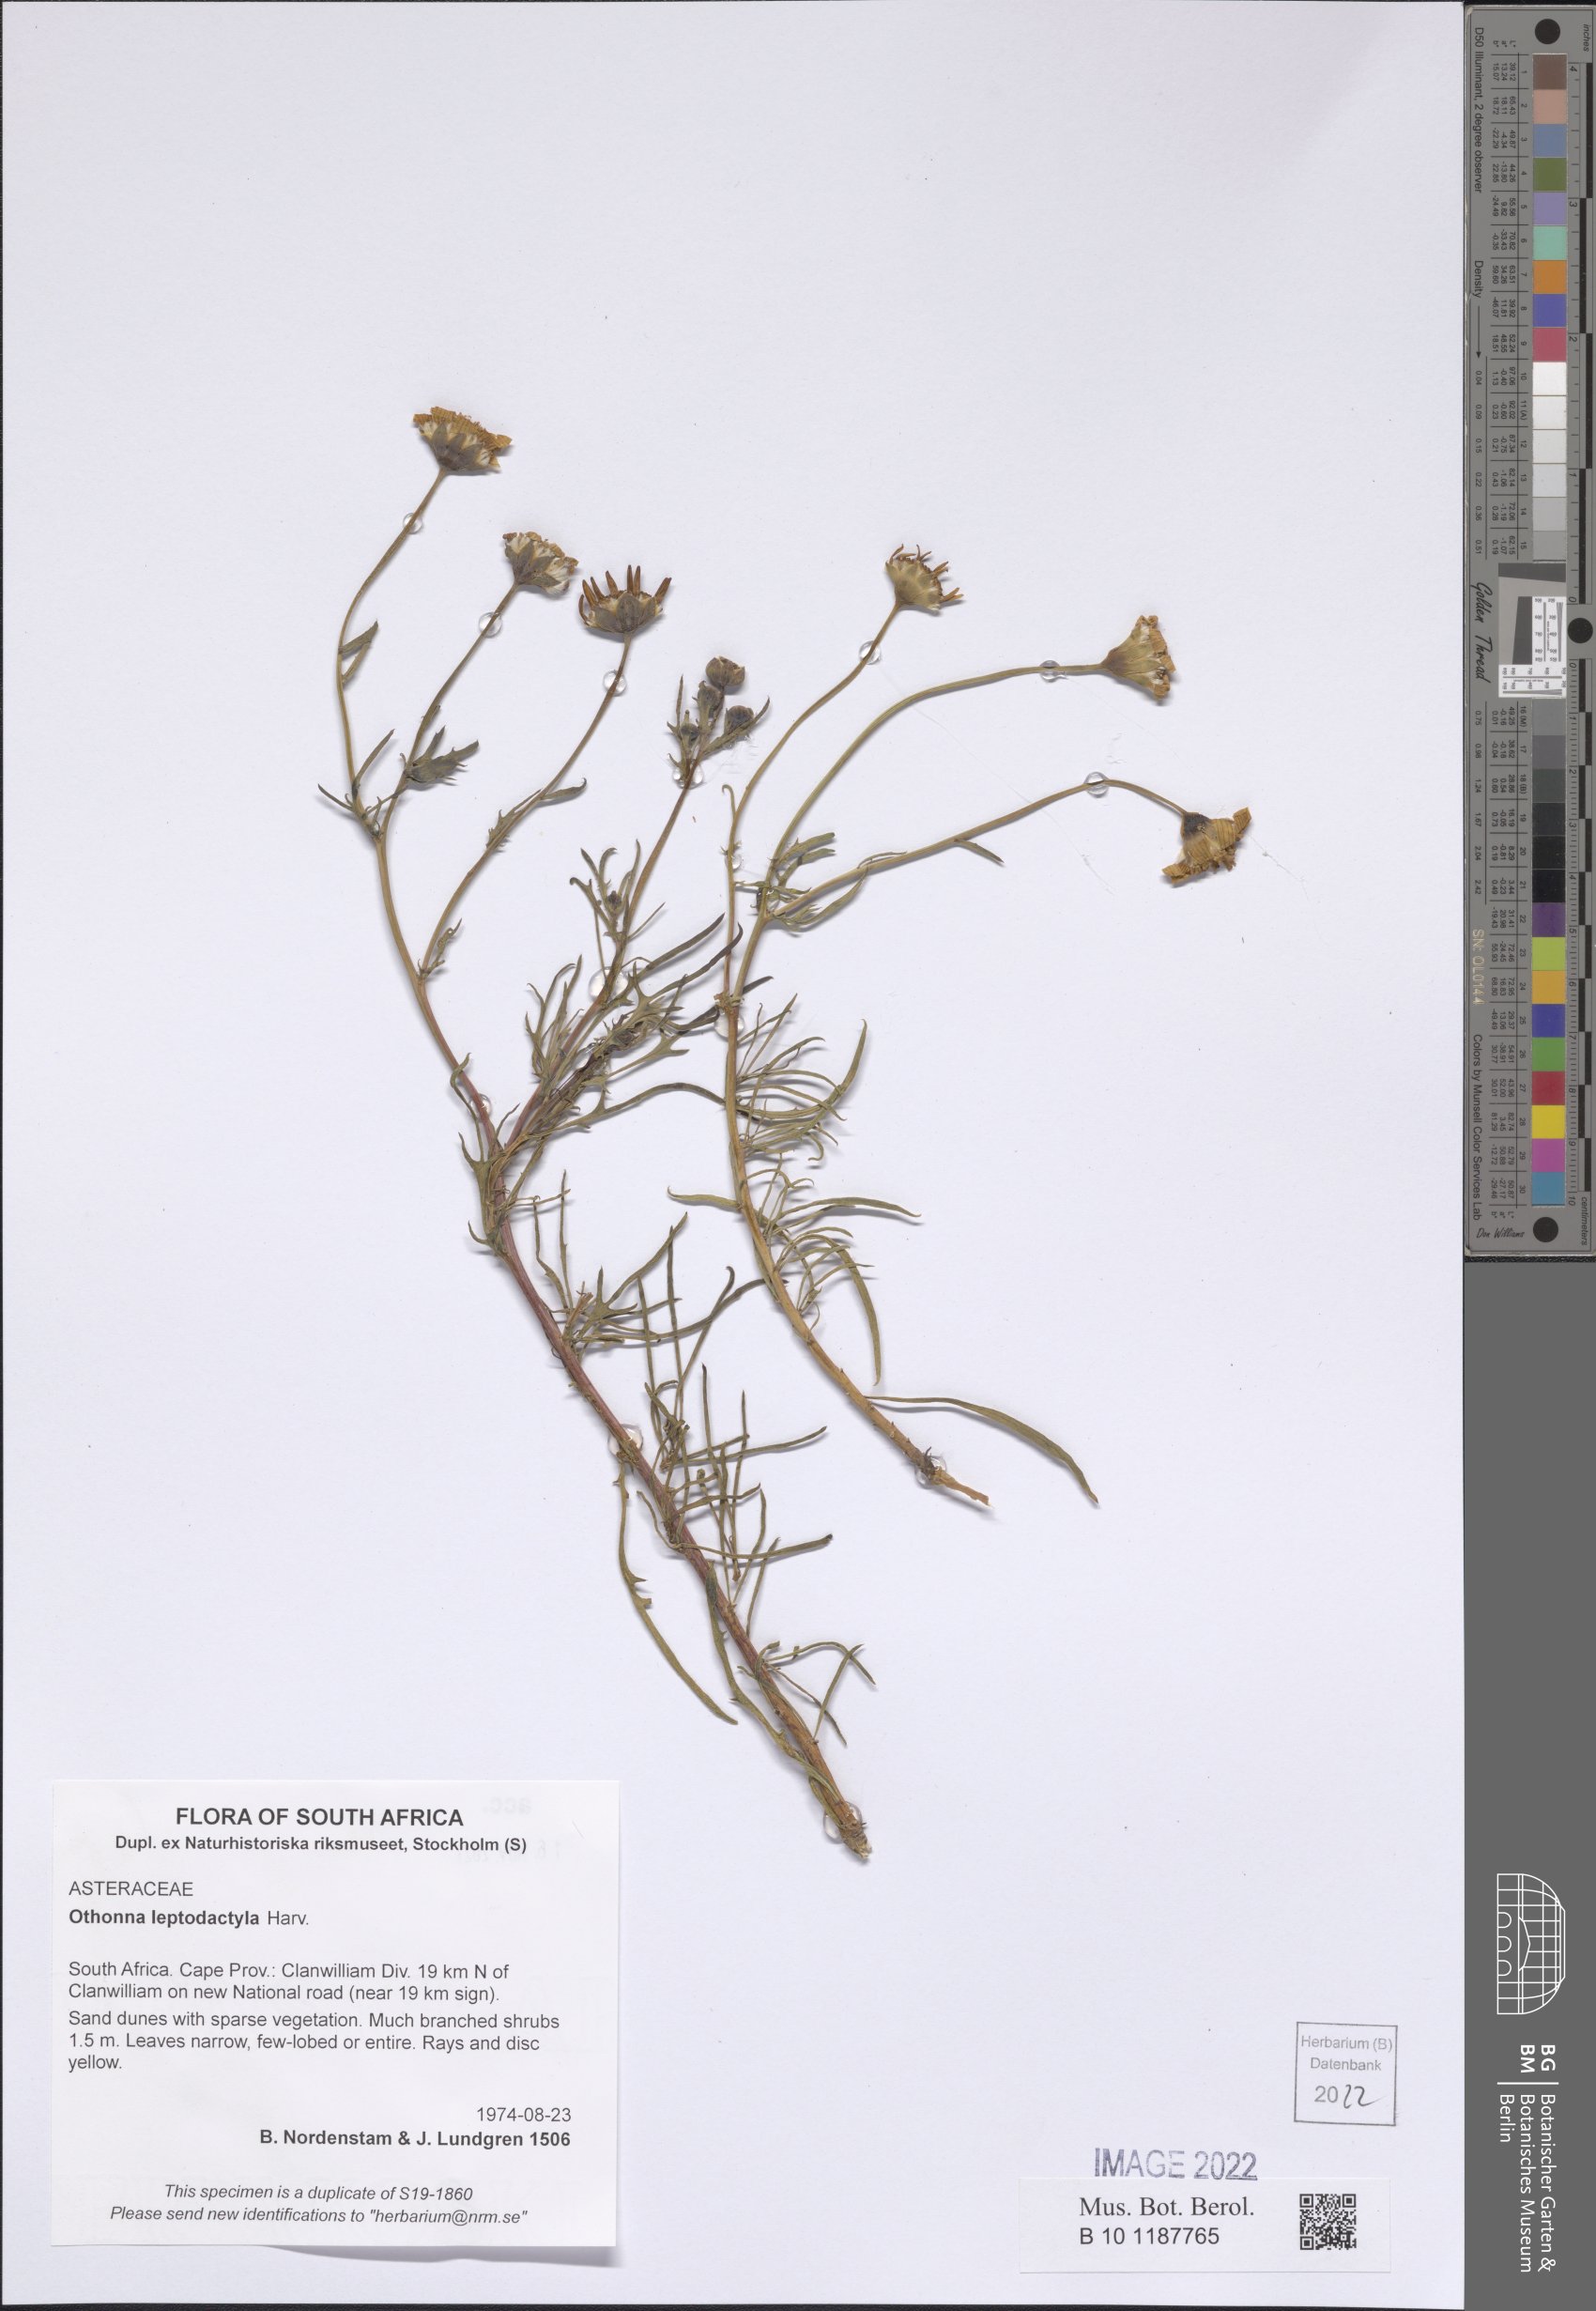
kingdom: Plantae
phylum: Tracheophyta
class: Magnoliopsida
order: Asterales
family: Asteraceae
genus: Othonna
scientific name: Othonna leptodactyla
